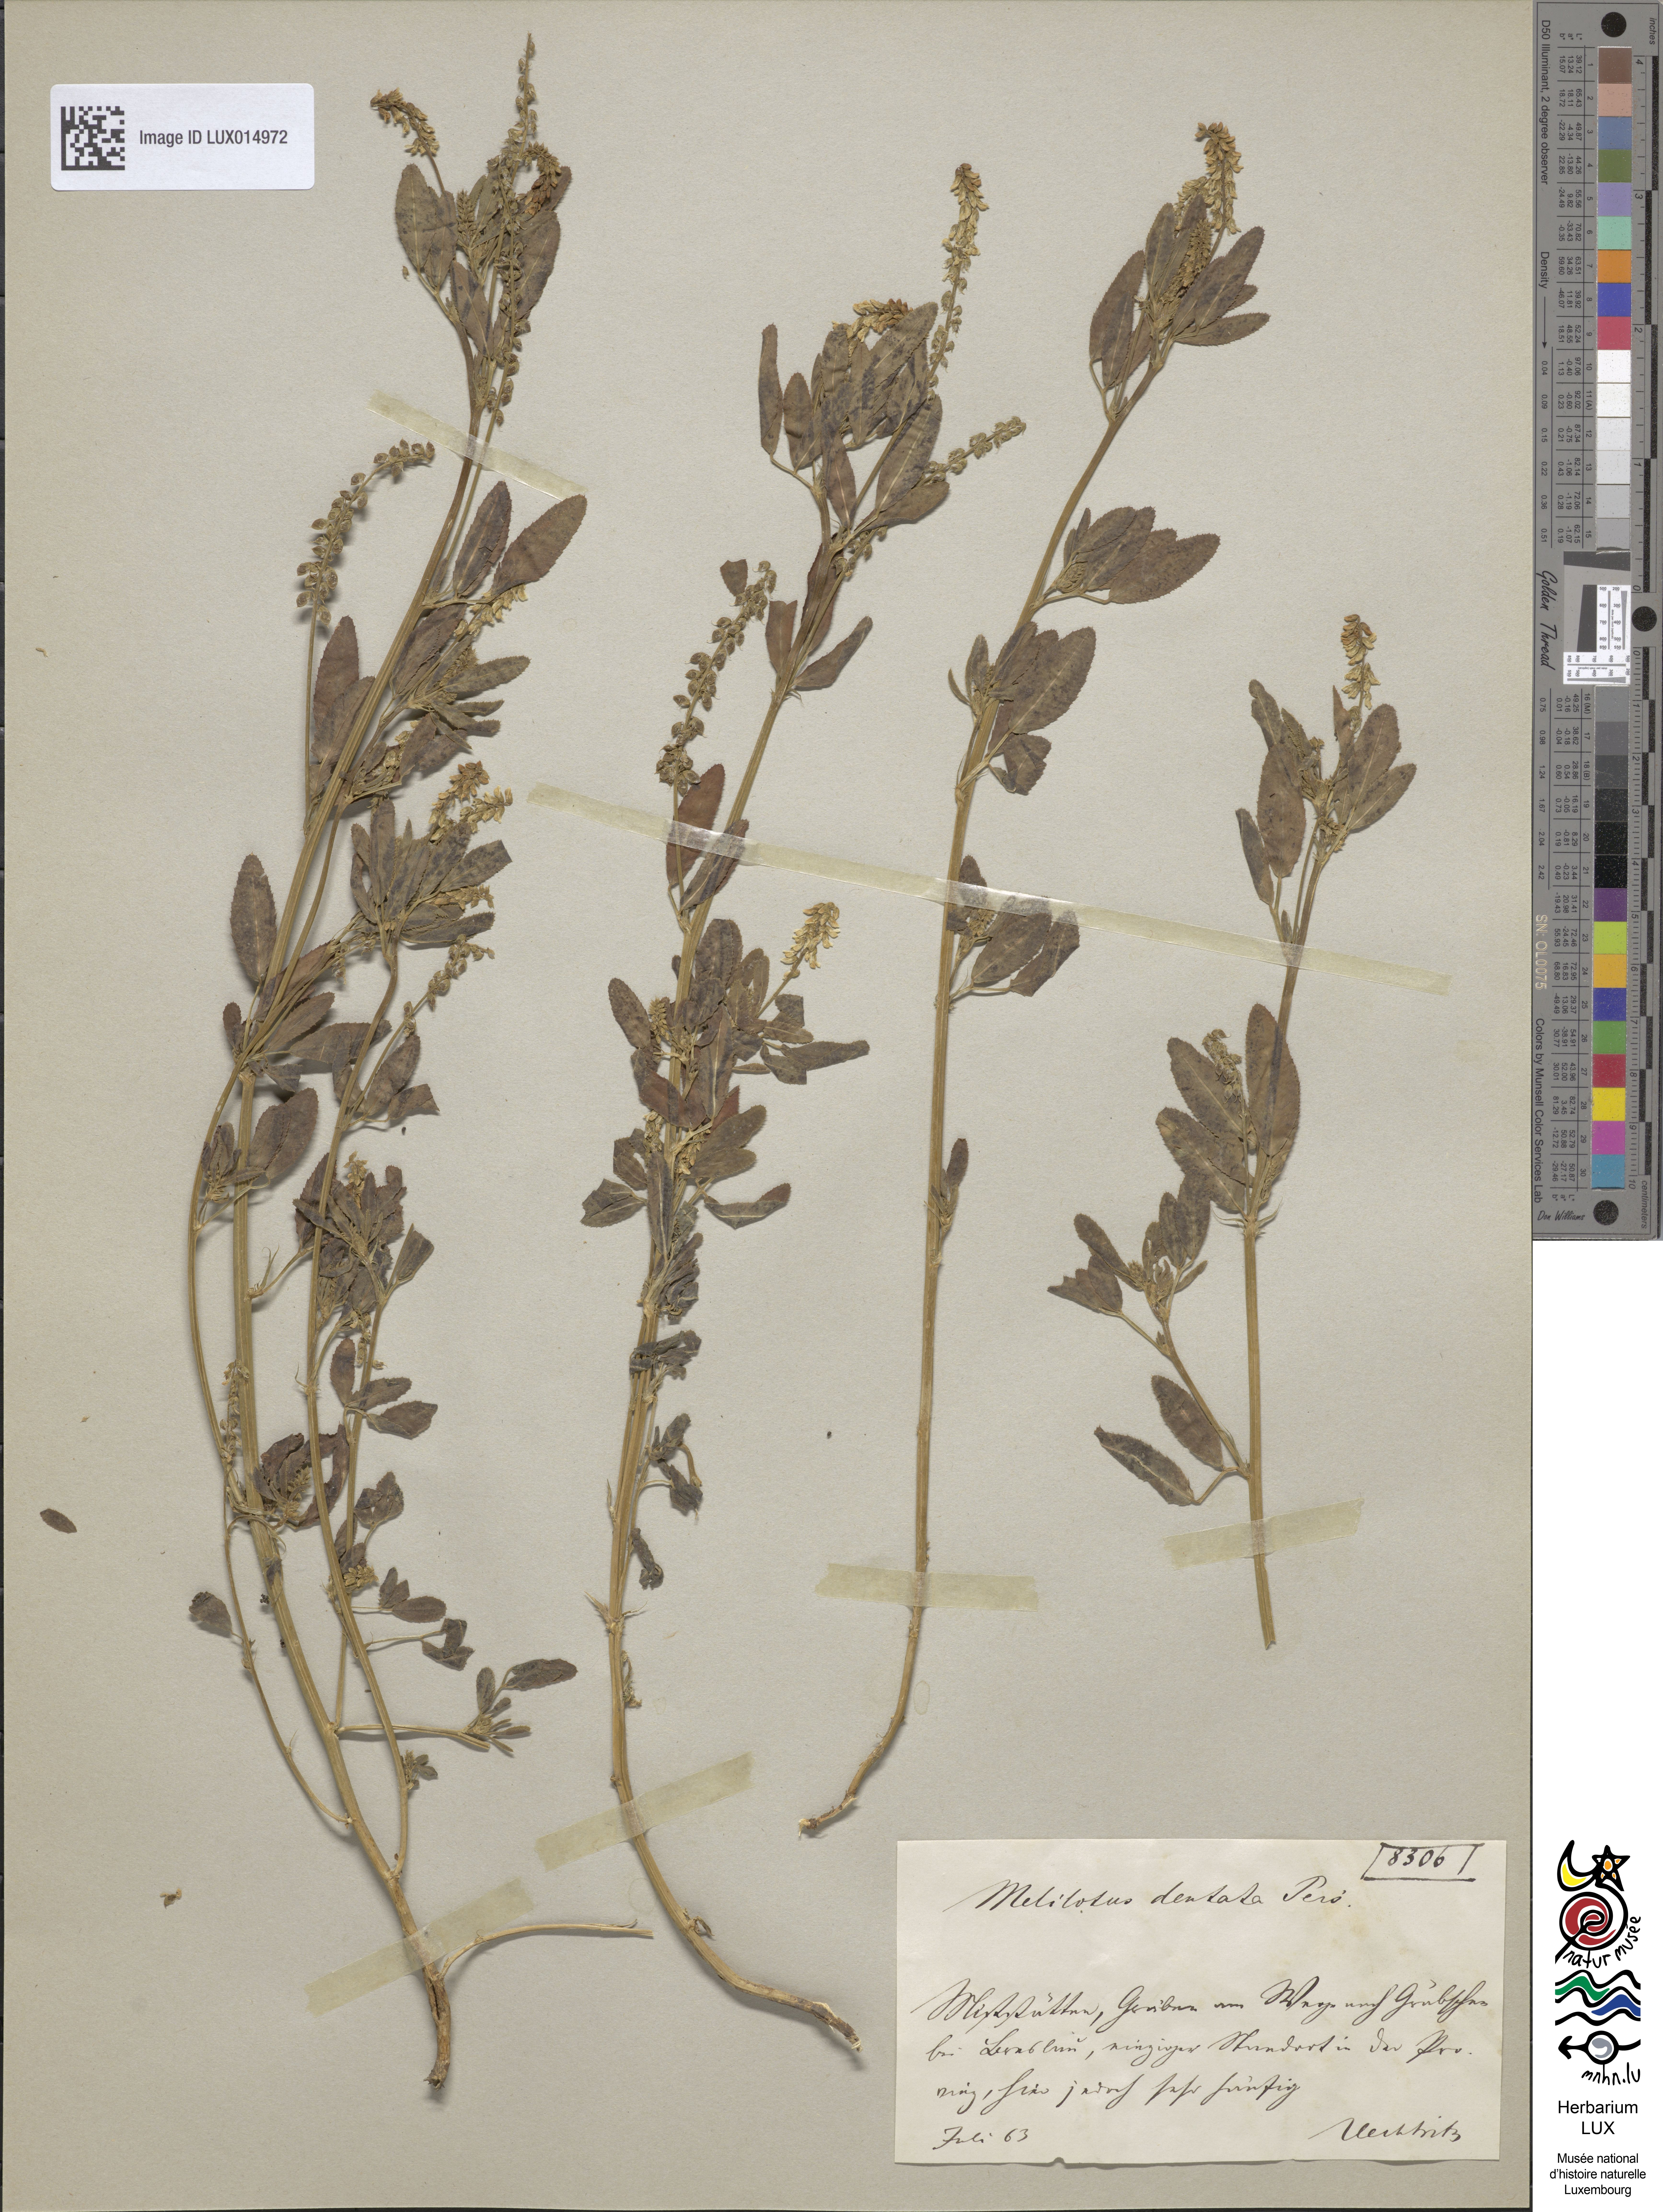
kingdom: Plantae
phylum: Tracheophyta
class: Magnoliopsida
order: Fabales
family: Fabaceae
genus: Melilotus
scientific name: Melilotus dentatus
